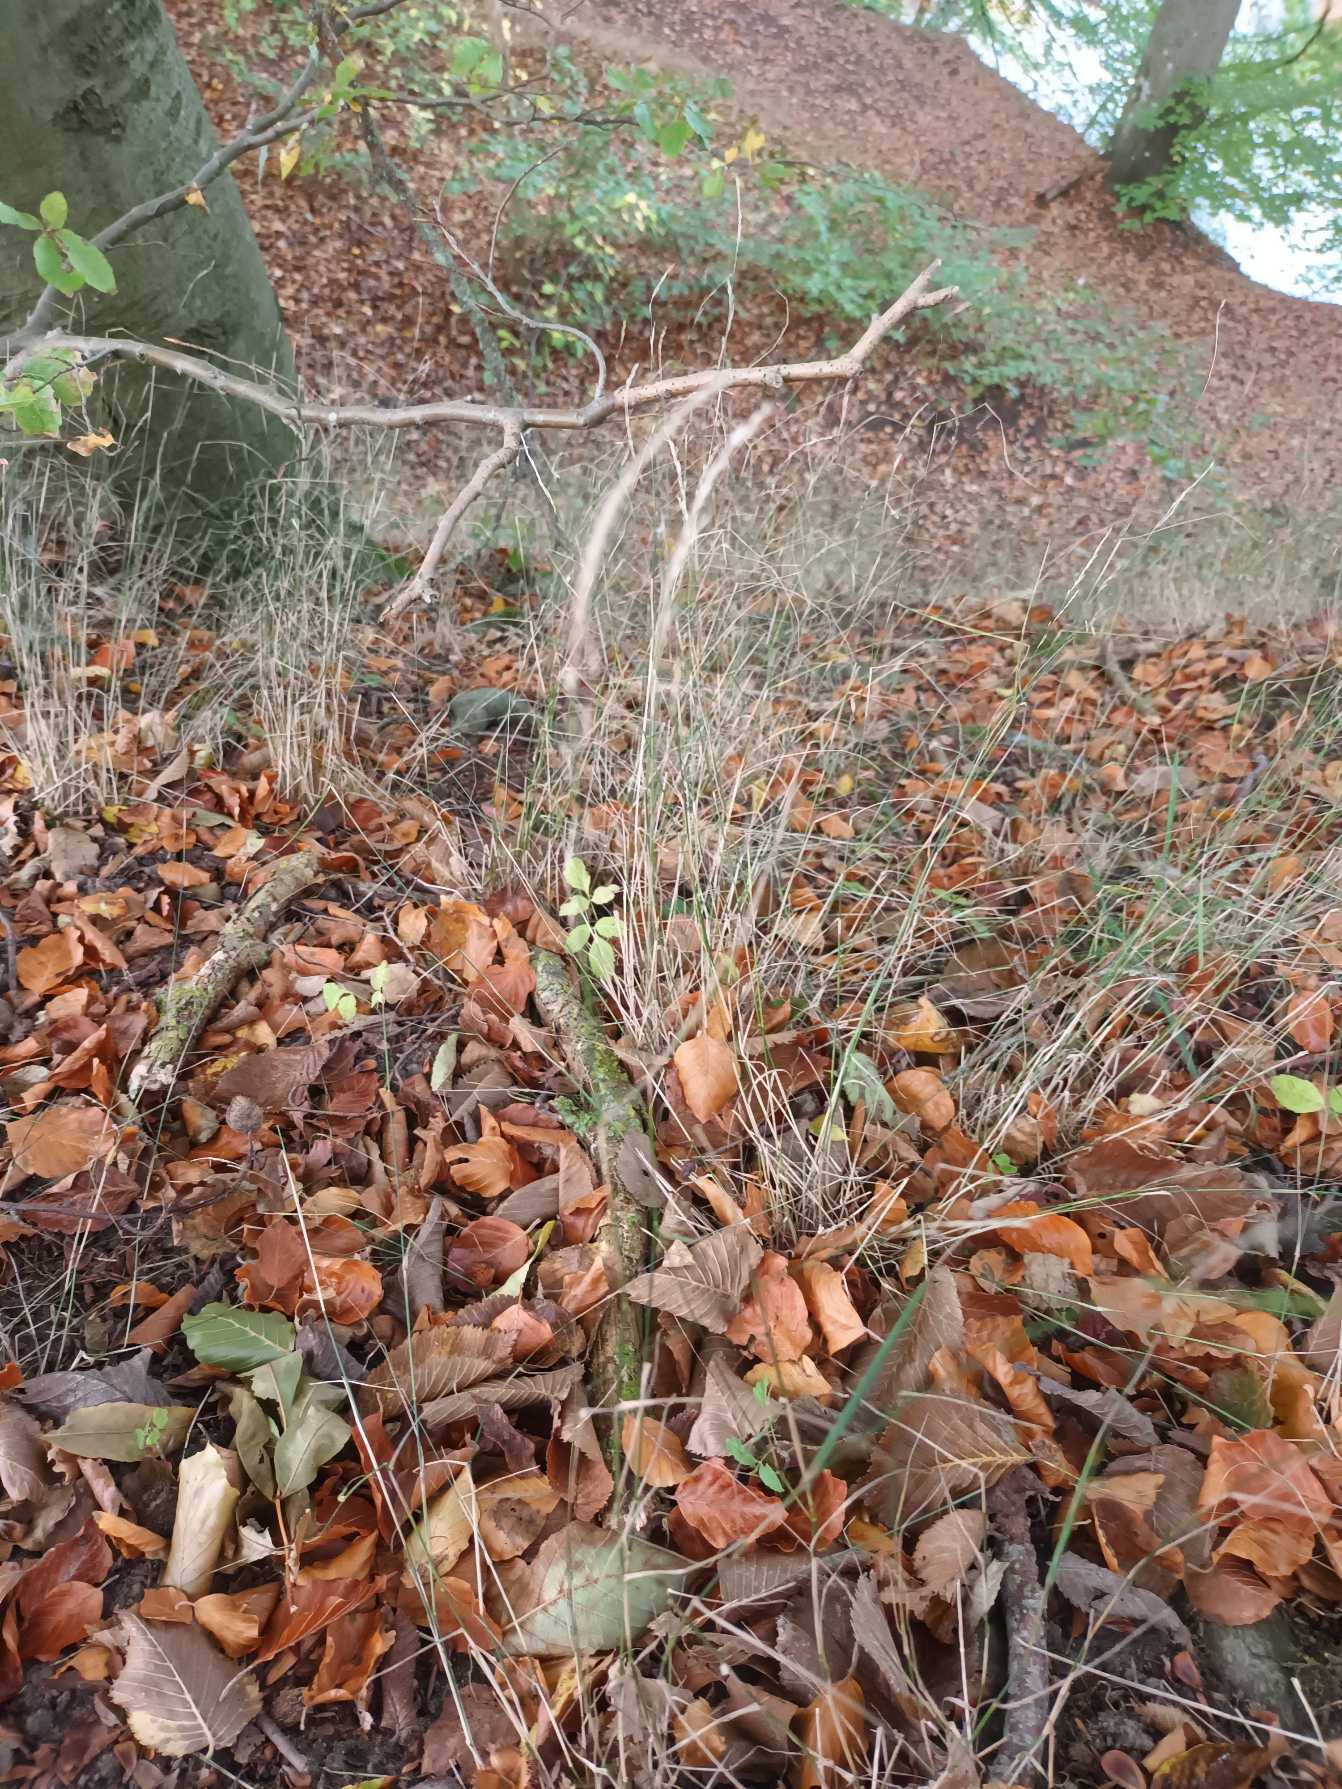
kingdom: Plantae
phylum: Tracheophyta
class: Liliopsida
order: Poales
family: Poaceae
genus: Poa
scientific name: Poa nemoralis
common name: Lund-rapgræs
